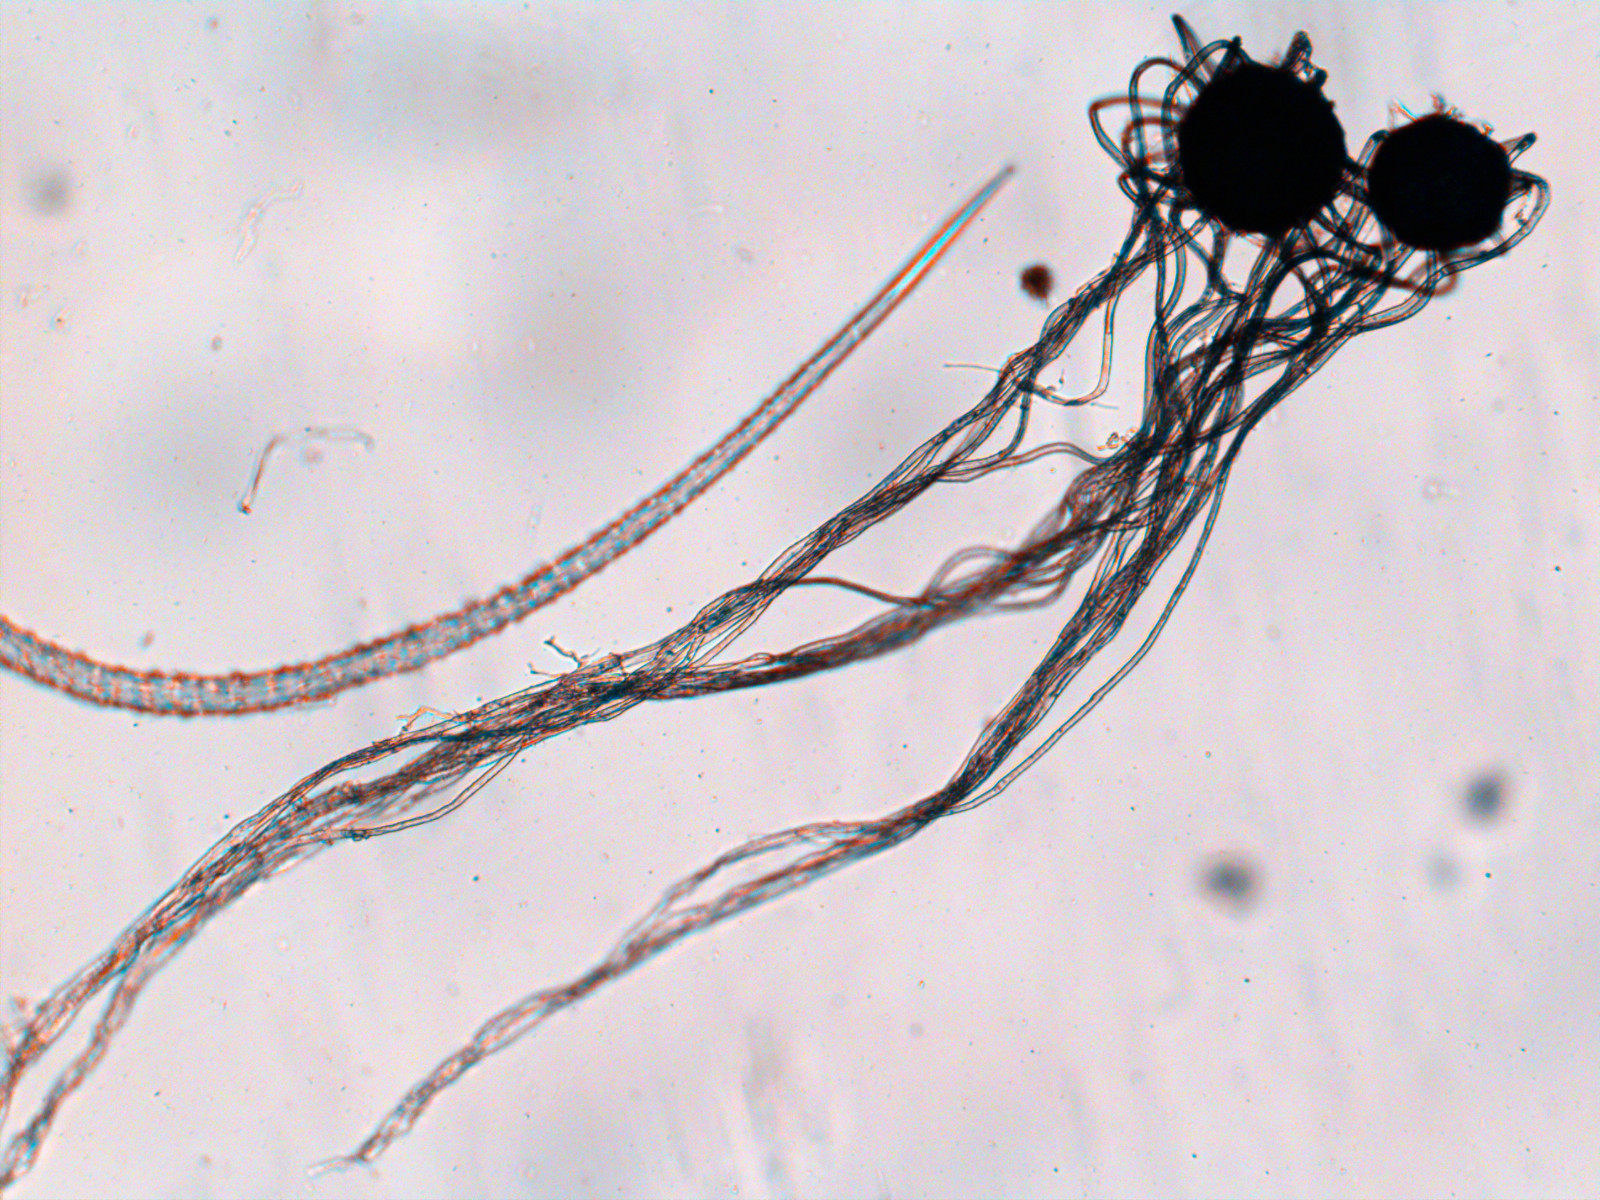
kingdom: Fungi
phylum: Ascomycota
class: Leotiomycetes
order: Helotiales
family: Erysiphaceae
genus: Erysiphe
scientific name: Erysiphe tortilis
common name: kornel-meldug
